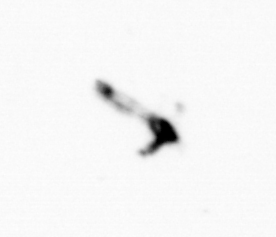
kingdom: Animalia
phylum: Arthropoda
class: Copepoda
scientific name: Copepoda
